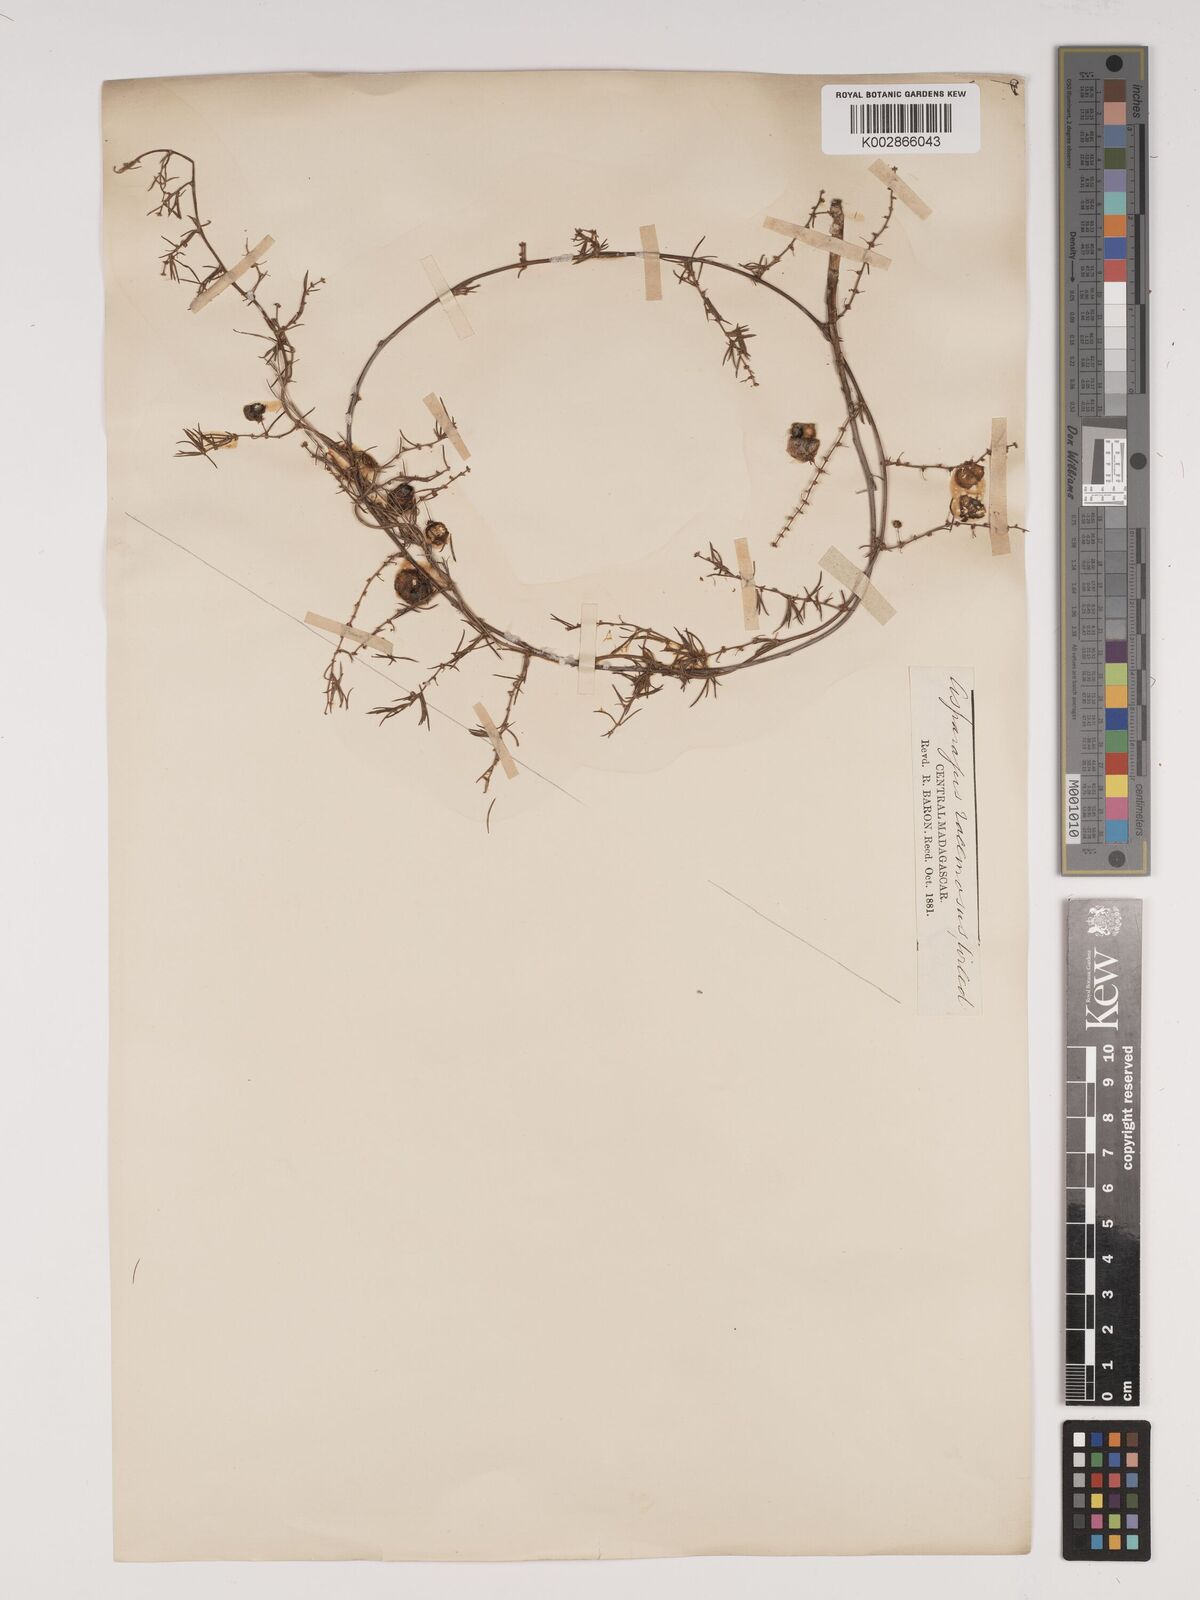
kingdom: Plantae
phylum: Tracheophyta
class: Liliopsida
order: Asparagales
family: Asparagaceae
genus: Asparagus
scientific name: Asparagus racemosus
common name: Asparagus-fern
